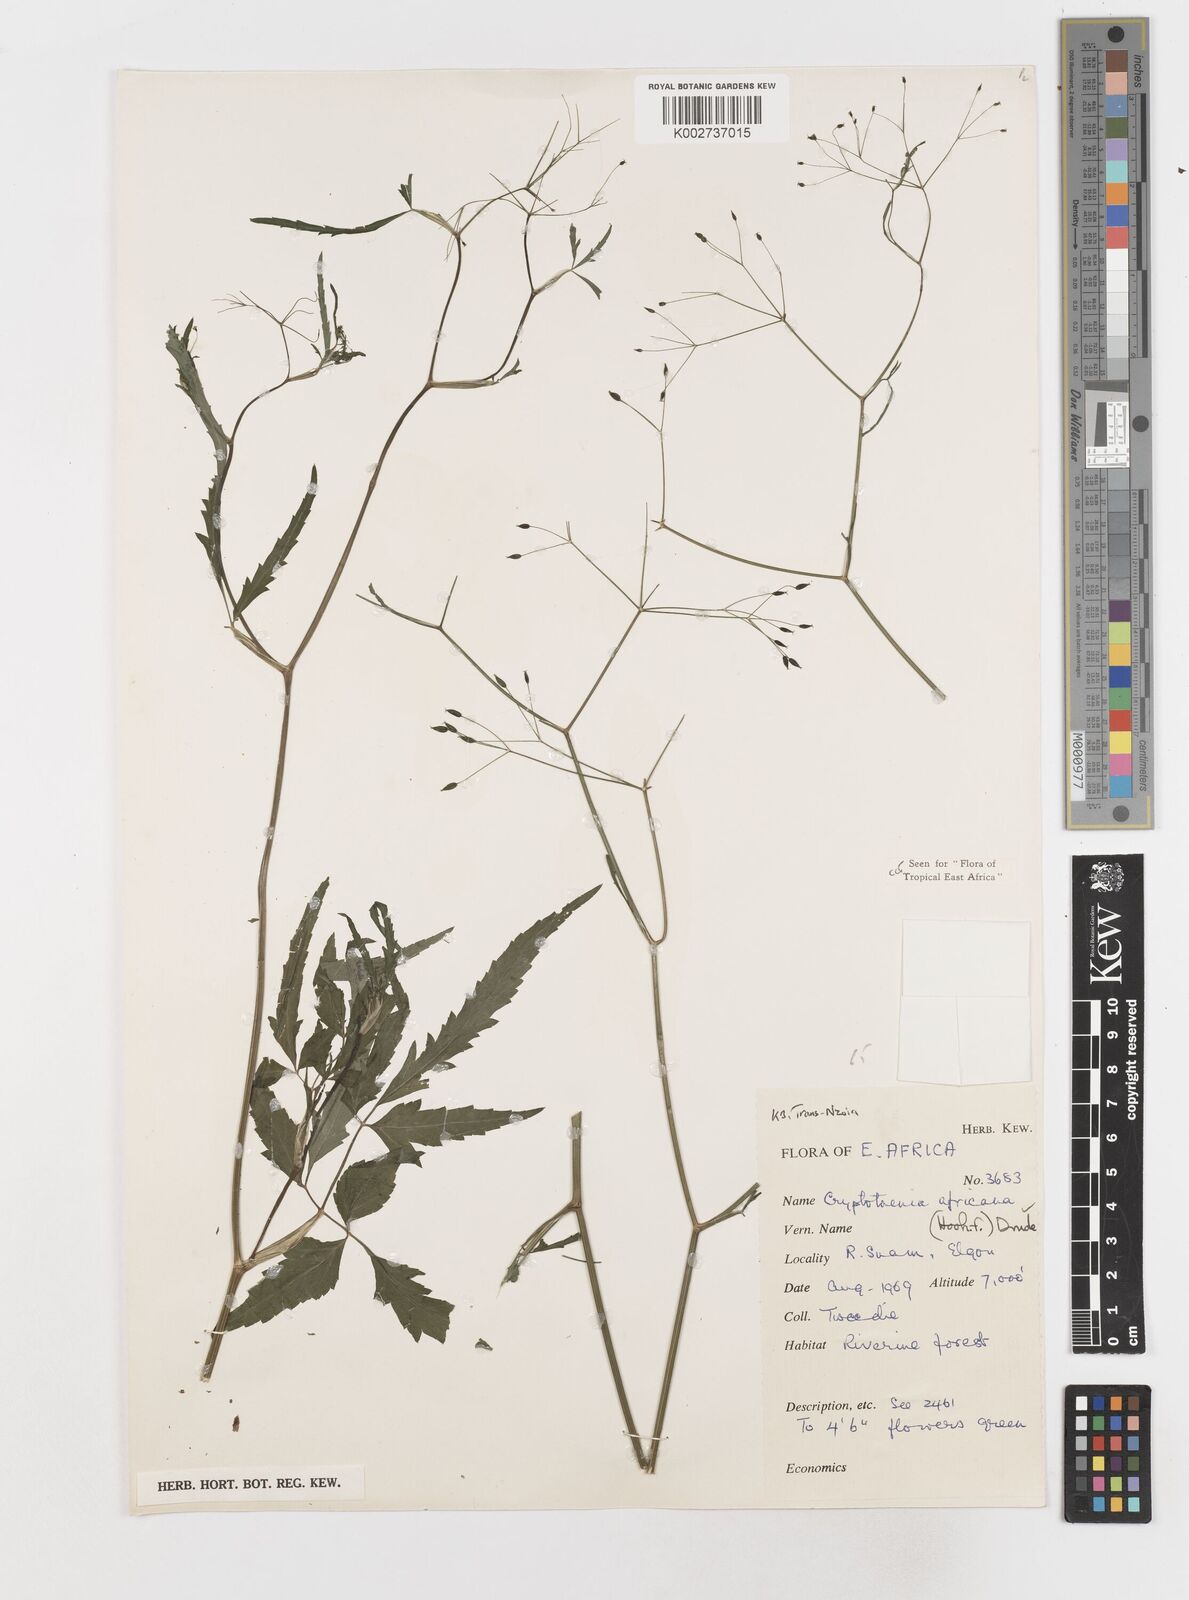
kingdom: Plantae
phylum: Tracheophyta
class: Magnoliopsida
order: Apiales
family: Apiaceae
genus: Cryptotaenia
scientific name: Cryptotaenia africana
